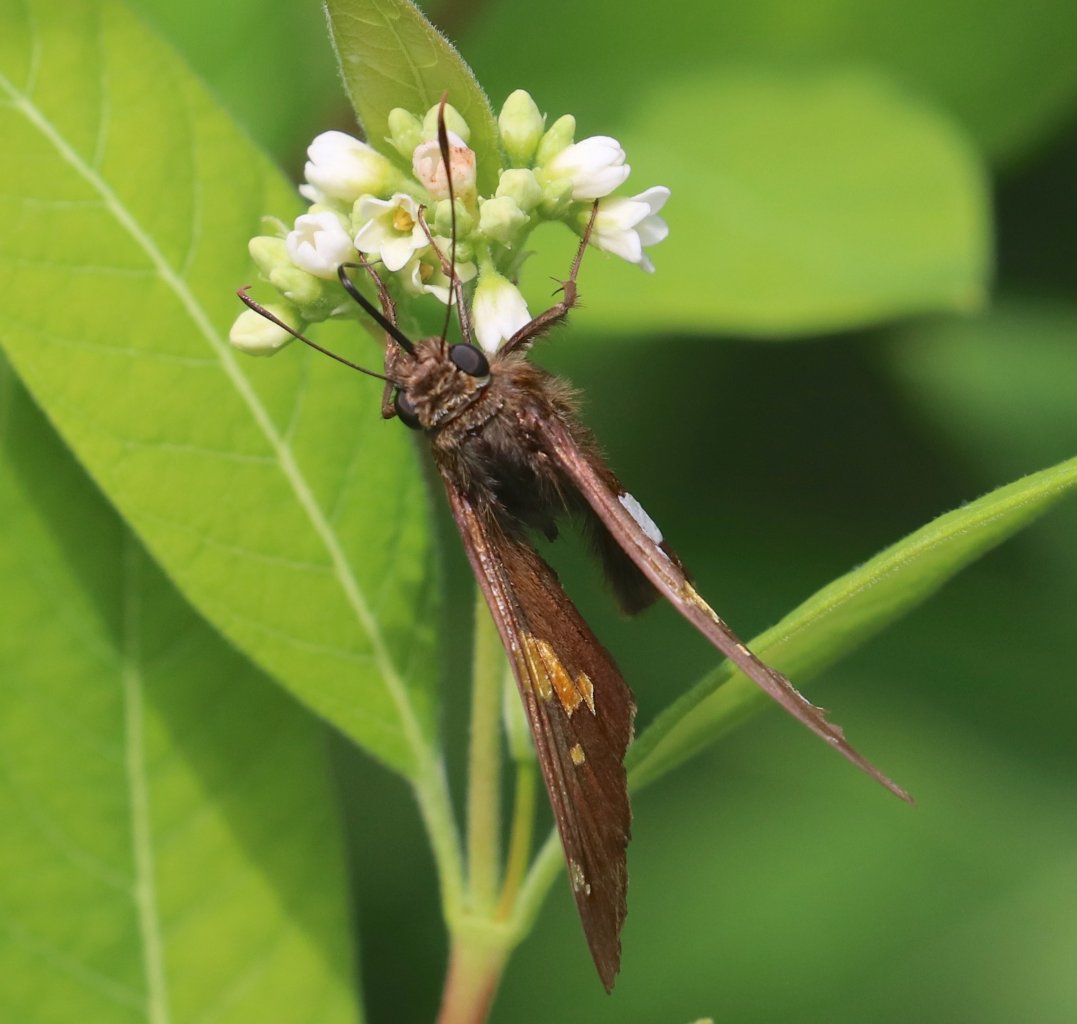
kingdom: Animalia
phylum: Arthropoda
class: Insecta
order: Lepidoptera
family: Hesperiidae
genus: Epargyreus
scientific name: Epargyreus clarus
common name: Silver-spotted Skipper
